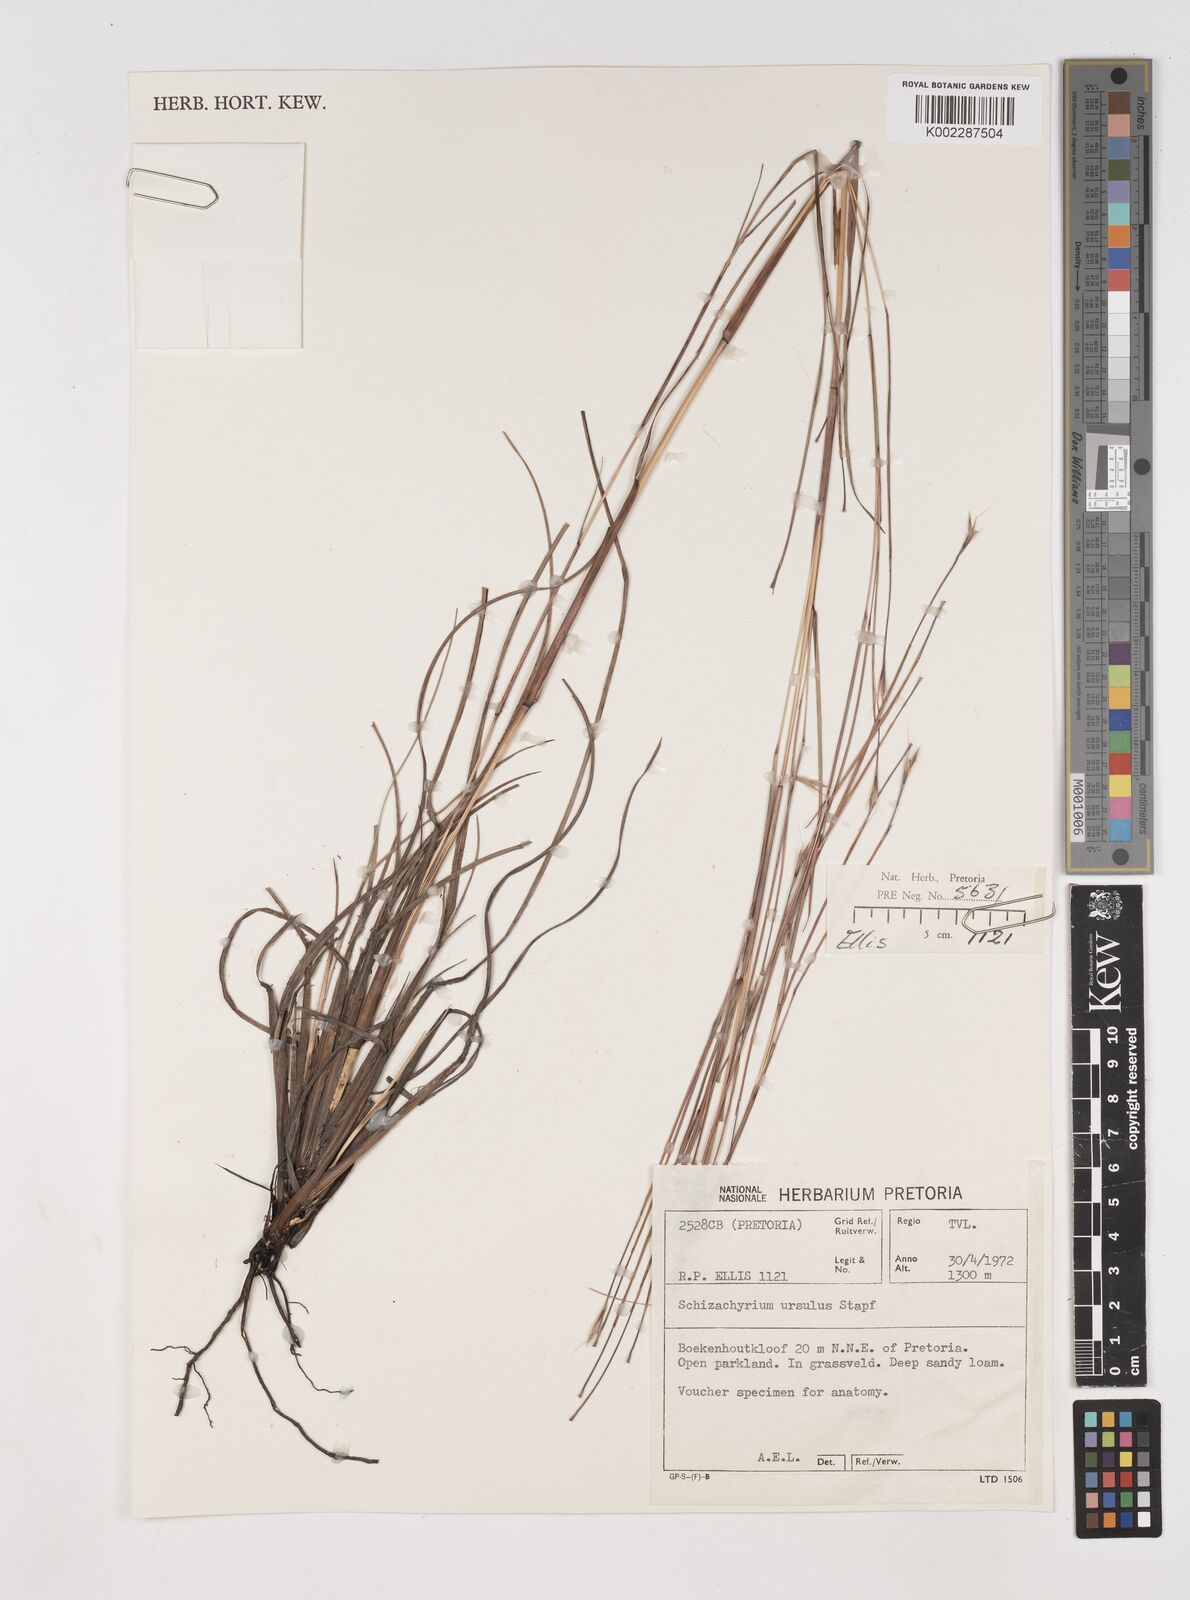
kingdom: Plantae
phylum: Tracheophyta
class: Liliopsida
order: Poales
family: Poaceae
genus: Schizachyrium
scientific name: Schizachyrium jeffreysii
